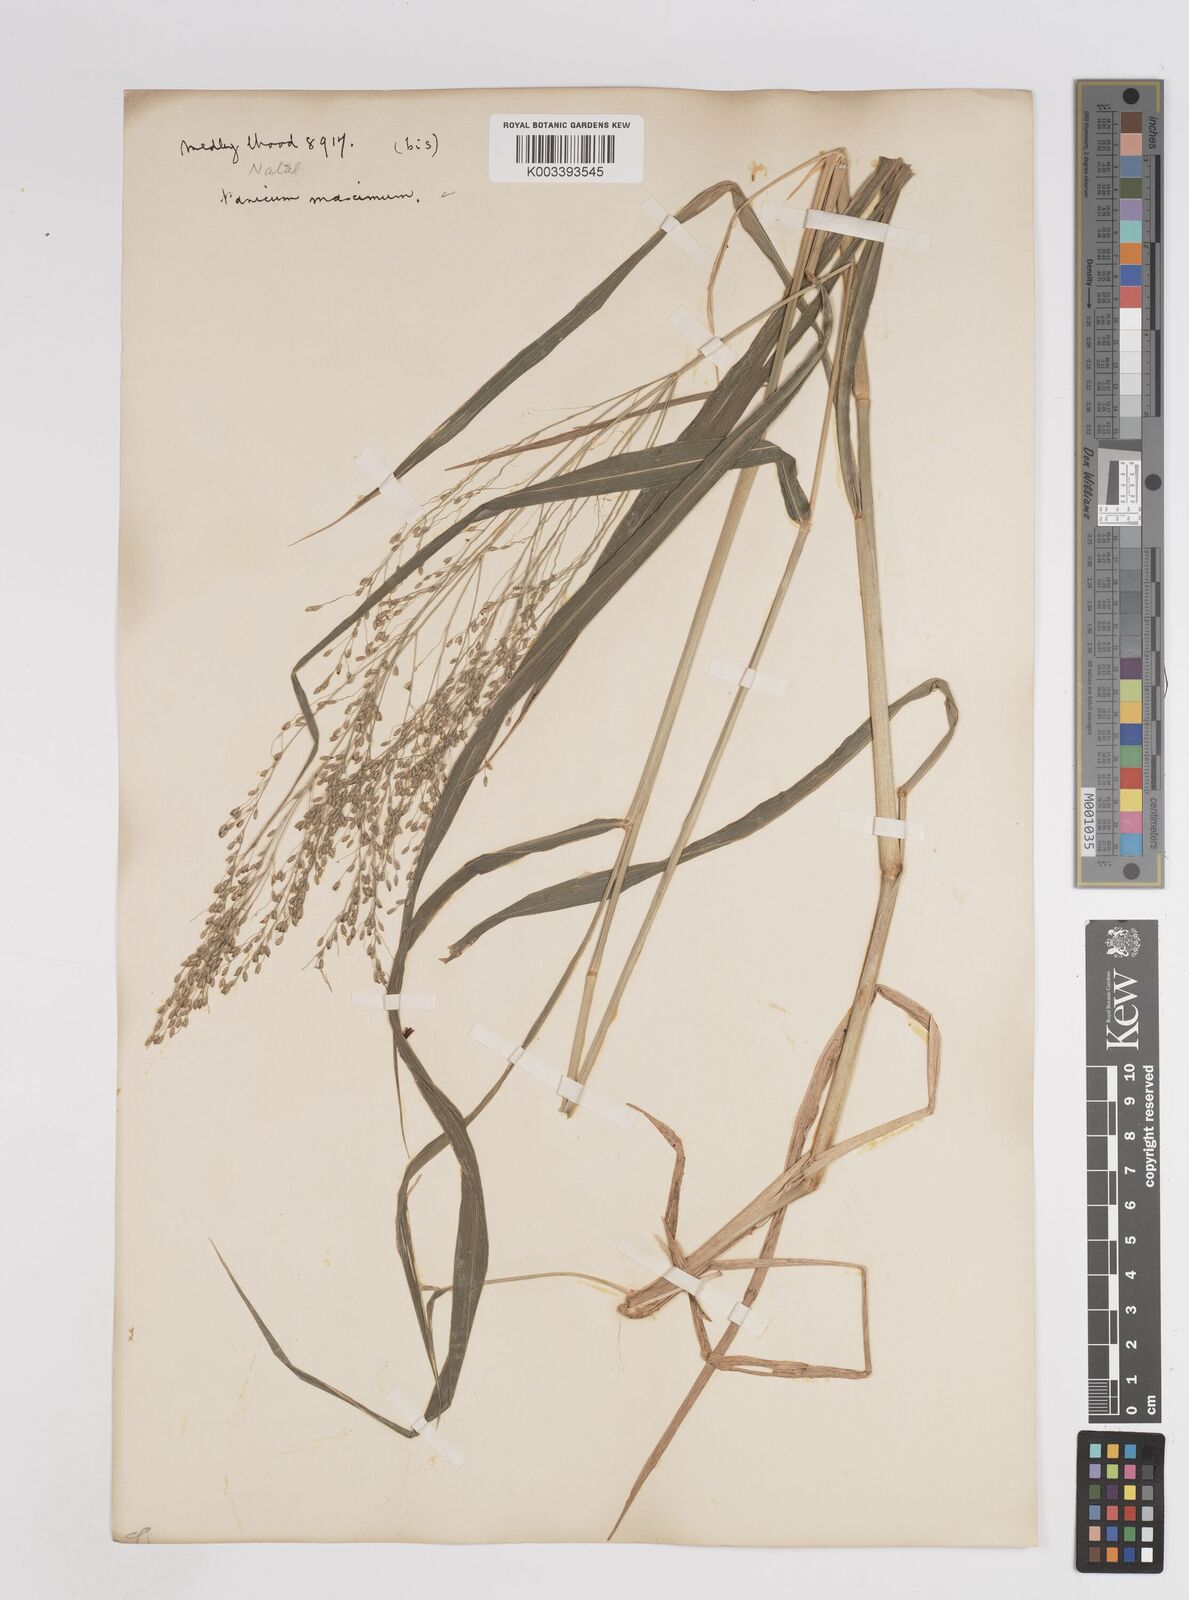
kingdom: Plantae
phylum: Tracheophyta
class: Liliopsida
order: Poales
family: Poaceae
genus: Megathyrsus
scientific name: Megathyrsus maximus
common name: Guineagrass
